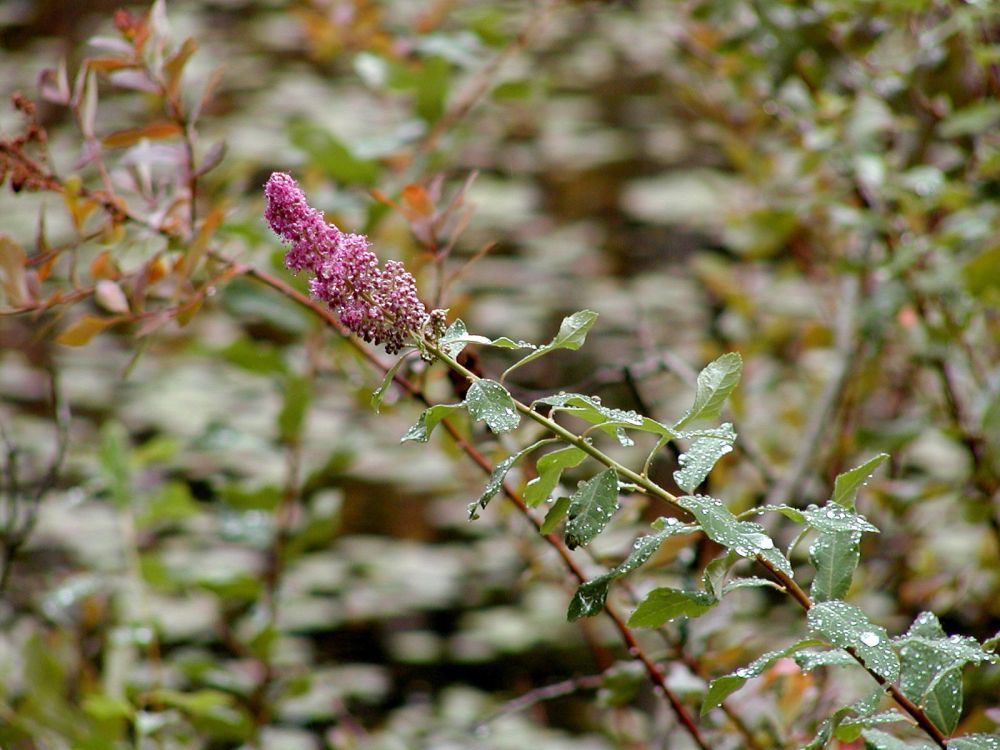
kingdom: Plantae
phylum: Tracheophyta
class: Magnoliopsida
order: Rosales
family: Rosaceae
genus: Spiraea
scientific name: Spiraea douglasii
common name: Steeplebush
